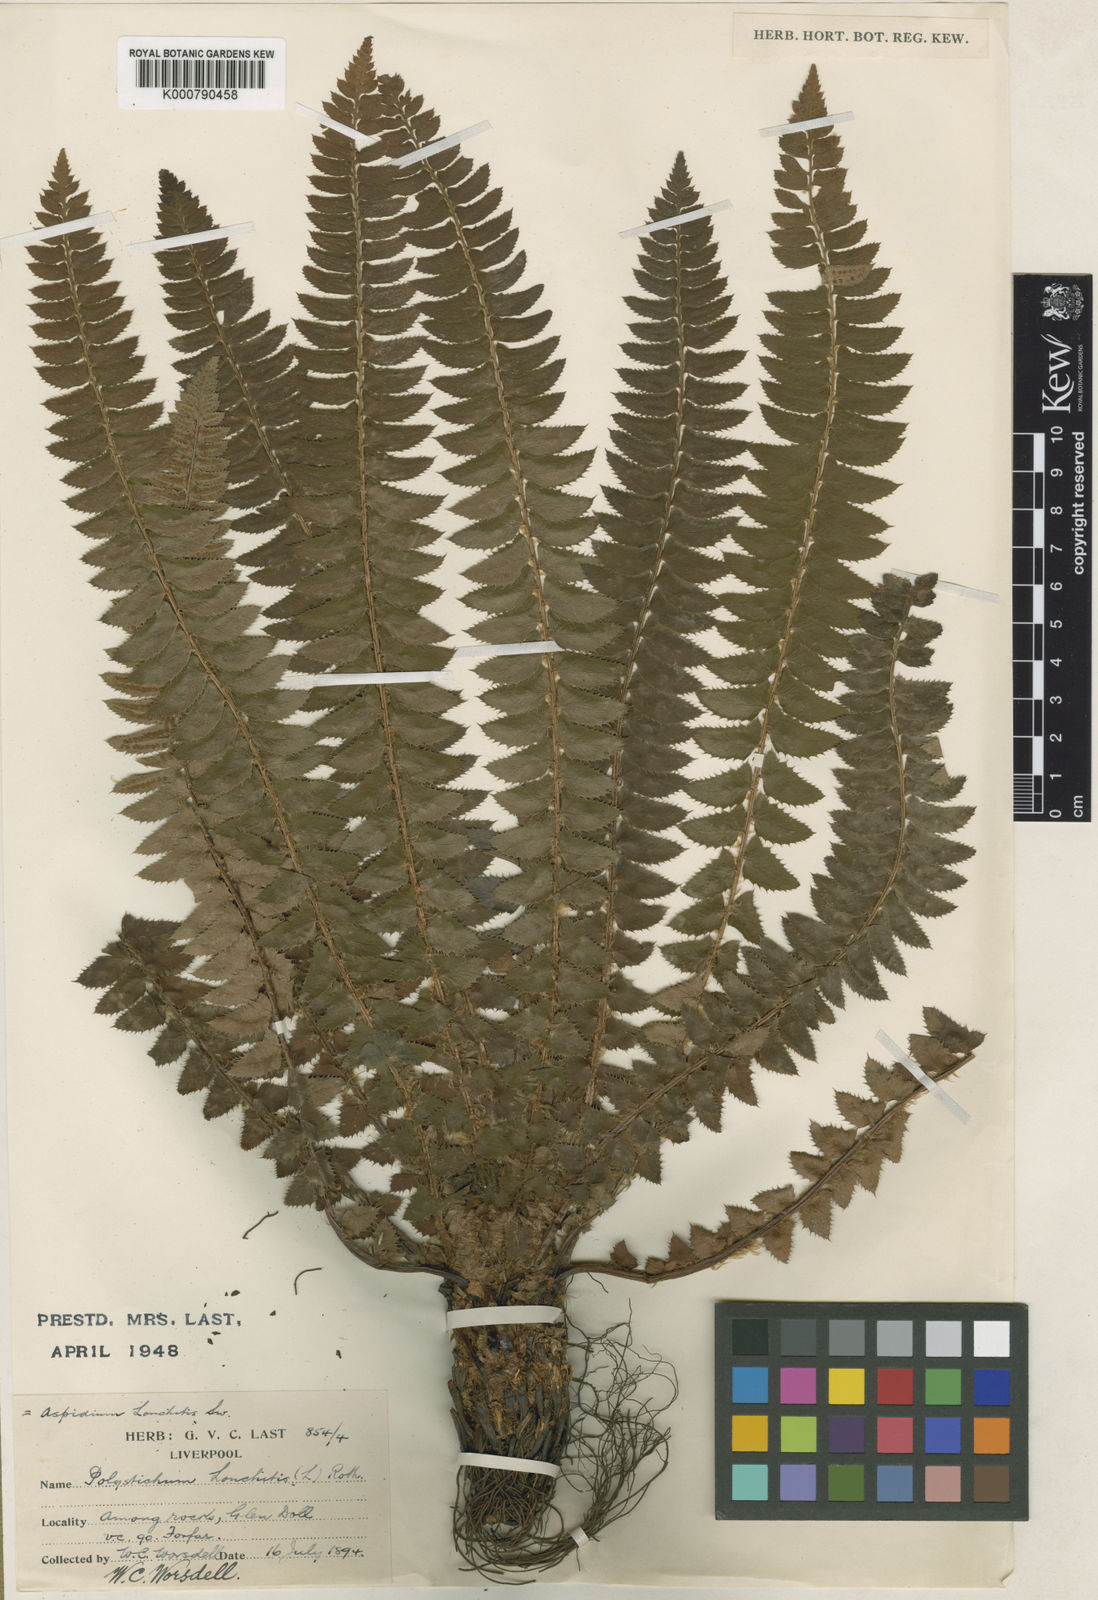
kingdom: Plantae
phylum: Tracheophyta
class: Polypodiopsida
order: Polypodiales
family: Dryopteridaceae
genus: Polystichum
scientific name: Polystichum
